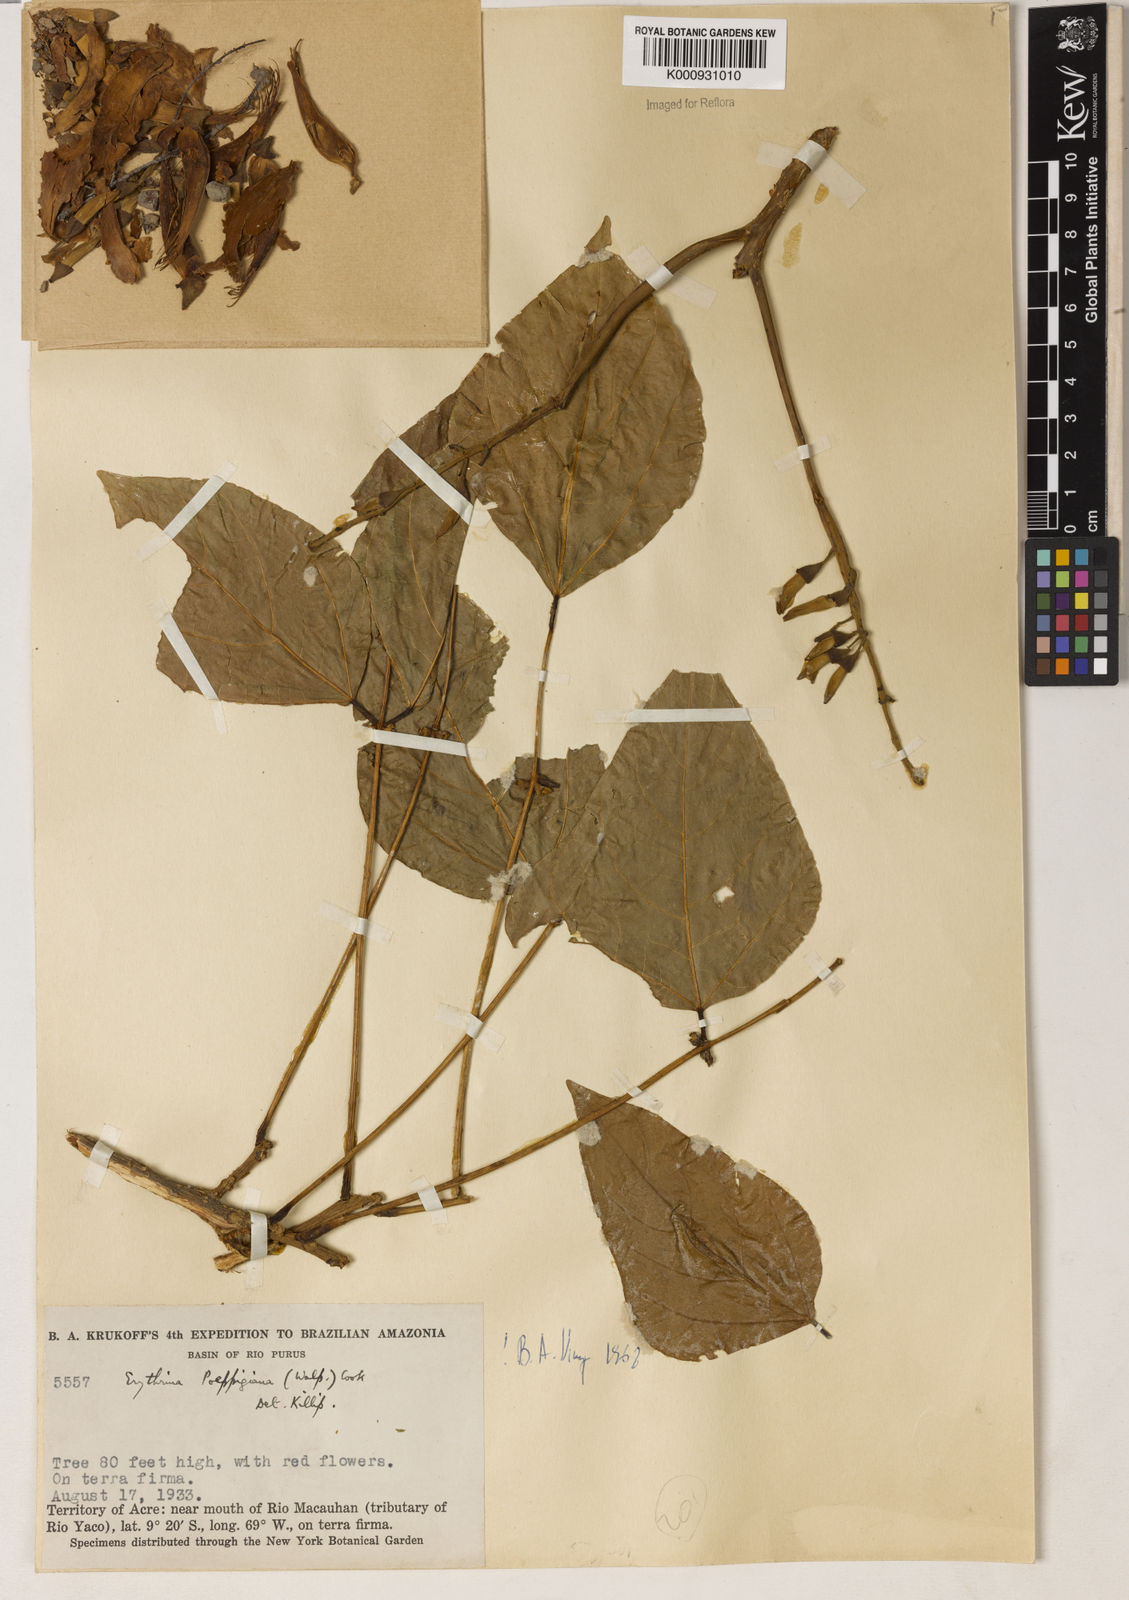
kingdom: Plantae
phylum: Tracheophyta
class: Magnoliopsida
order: Fabales
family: Fabaceae
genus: Erythrina
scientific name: Erythrina poeppigiana
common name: Coral tree
